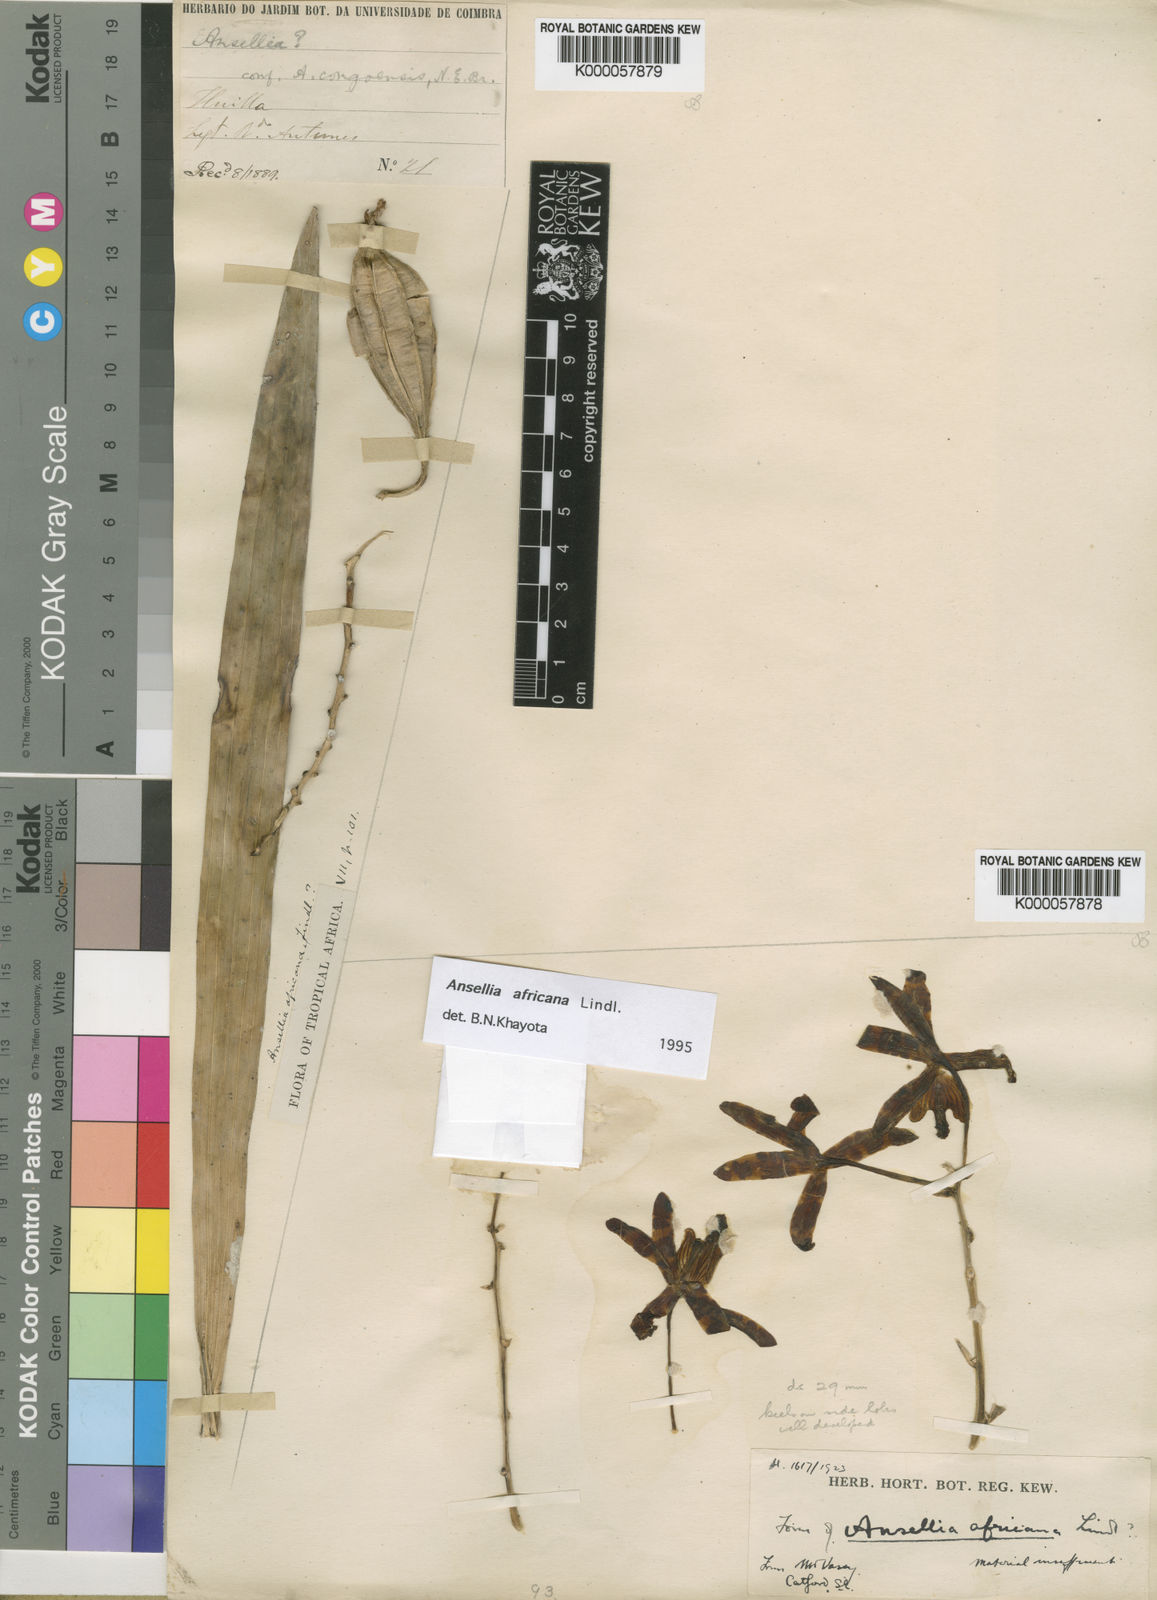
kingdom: Plantae
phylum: Tracheophyta
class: Liliopsida
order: Asparagales
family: Orchidaceae
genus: Ansellia
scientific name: Ansellia africana
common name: African ansellia
